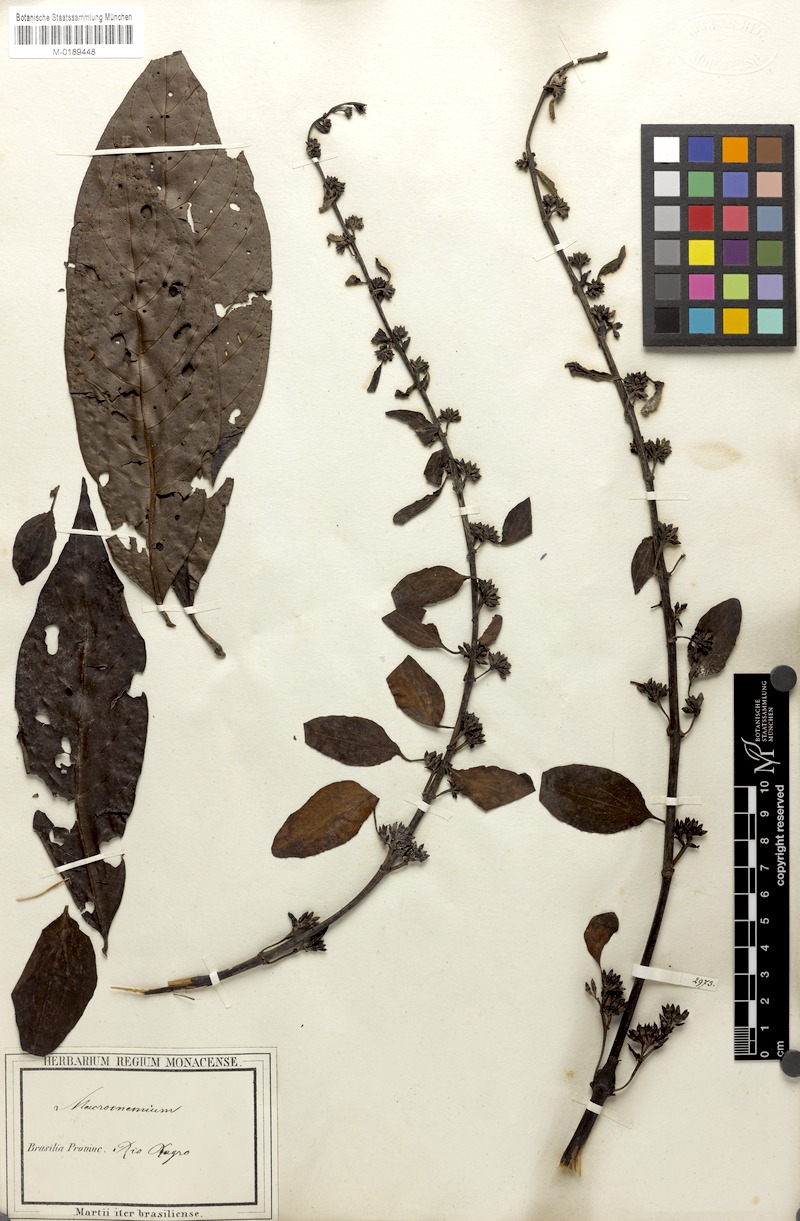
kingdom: Plantae
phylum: Tracheophyta
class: Magnoliopsida
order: Gentianales
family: Rubiaceae
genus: Warszewiczia
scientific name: Warszewiczia coccinea
